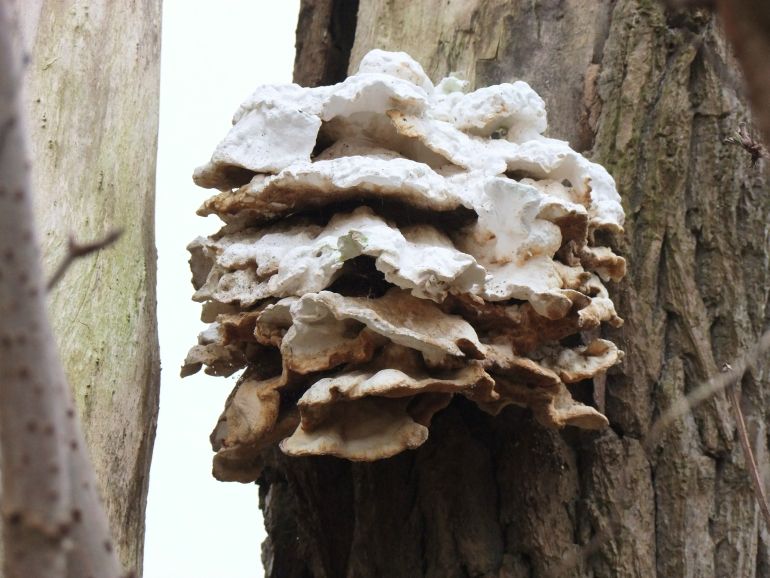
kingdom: Fungi
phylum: Basidiomycota
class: Agaricomycetes
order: Polyporales
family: Laetiporaceae
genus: Laetiporus
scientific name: Laetiporus sulphureus
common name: svovlporesvamp
